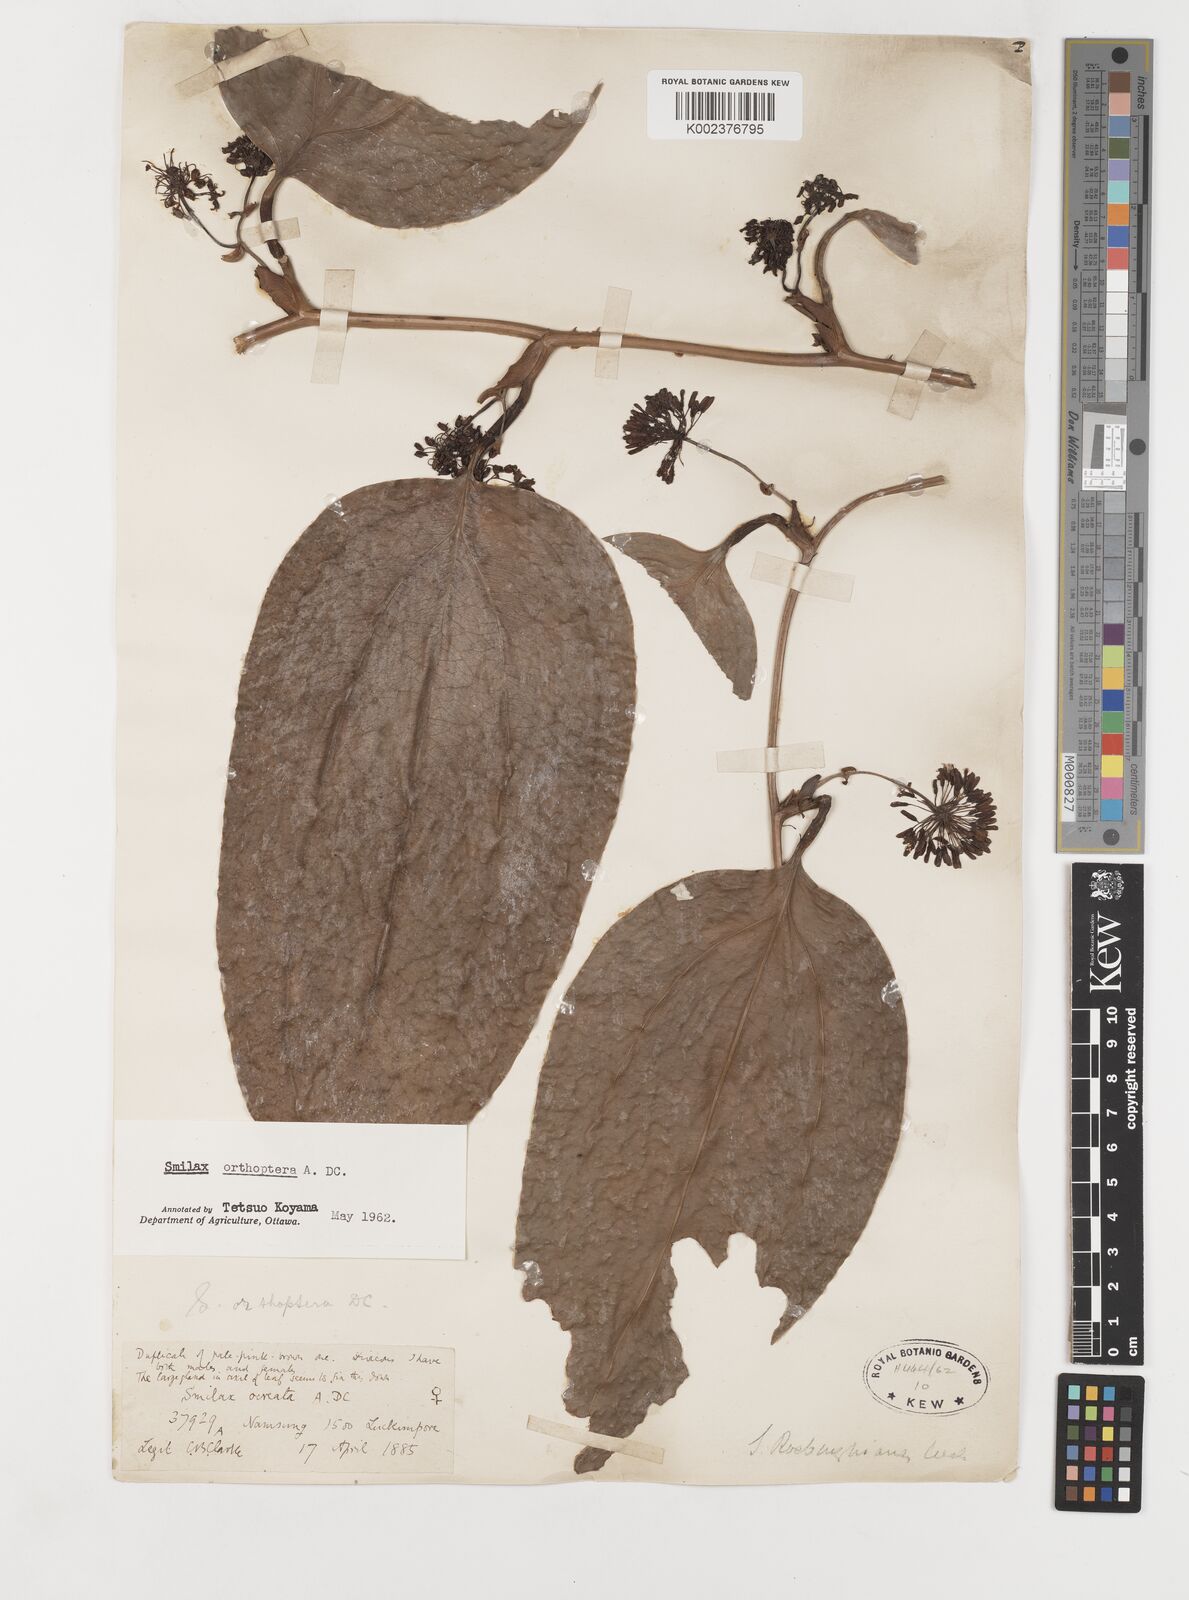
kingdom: Plantae
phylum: Tracheophyta
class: Liliopsida
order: Liliales
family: Smilacaceae
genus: Smilax
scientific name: Smilax orthoptera
